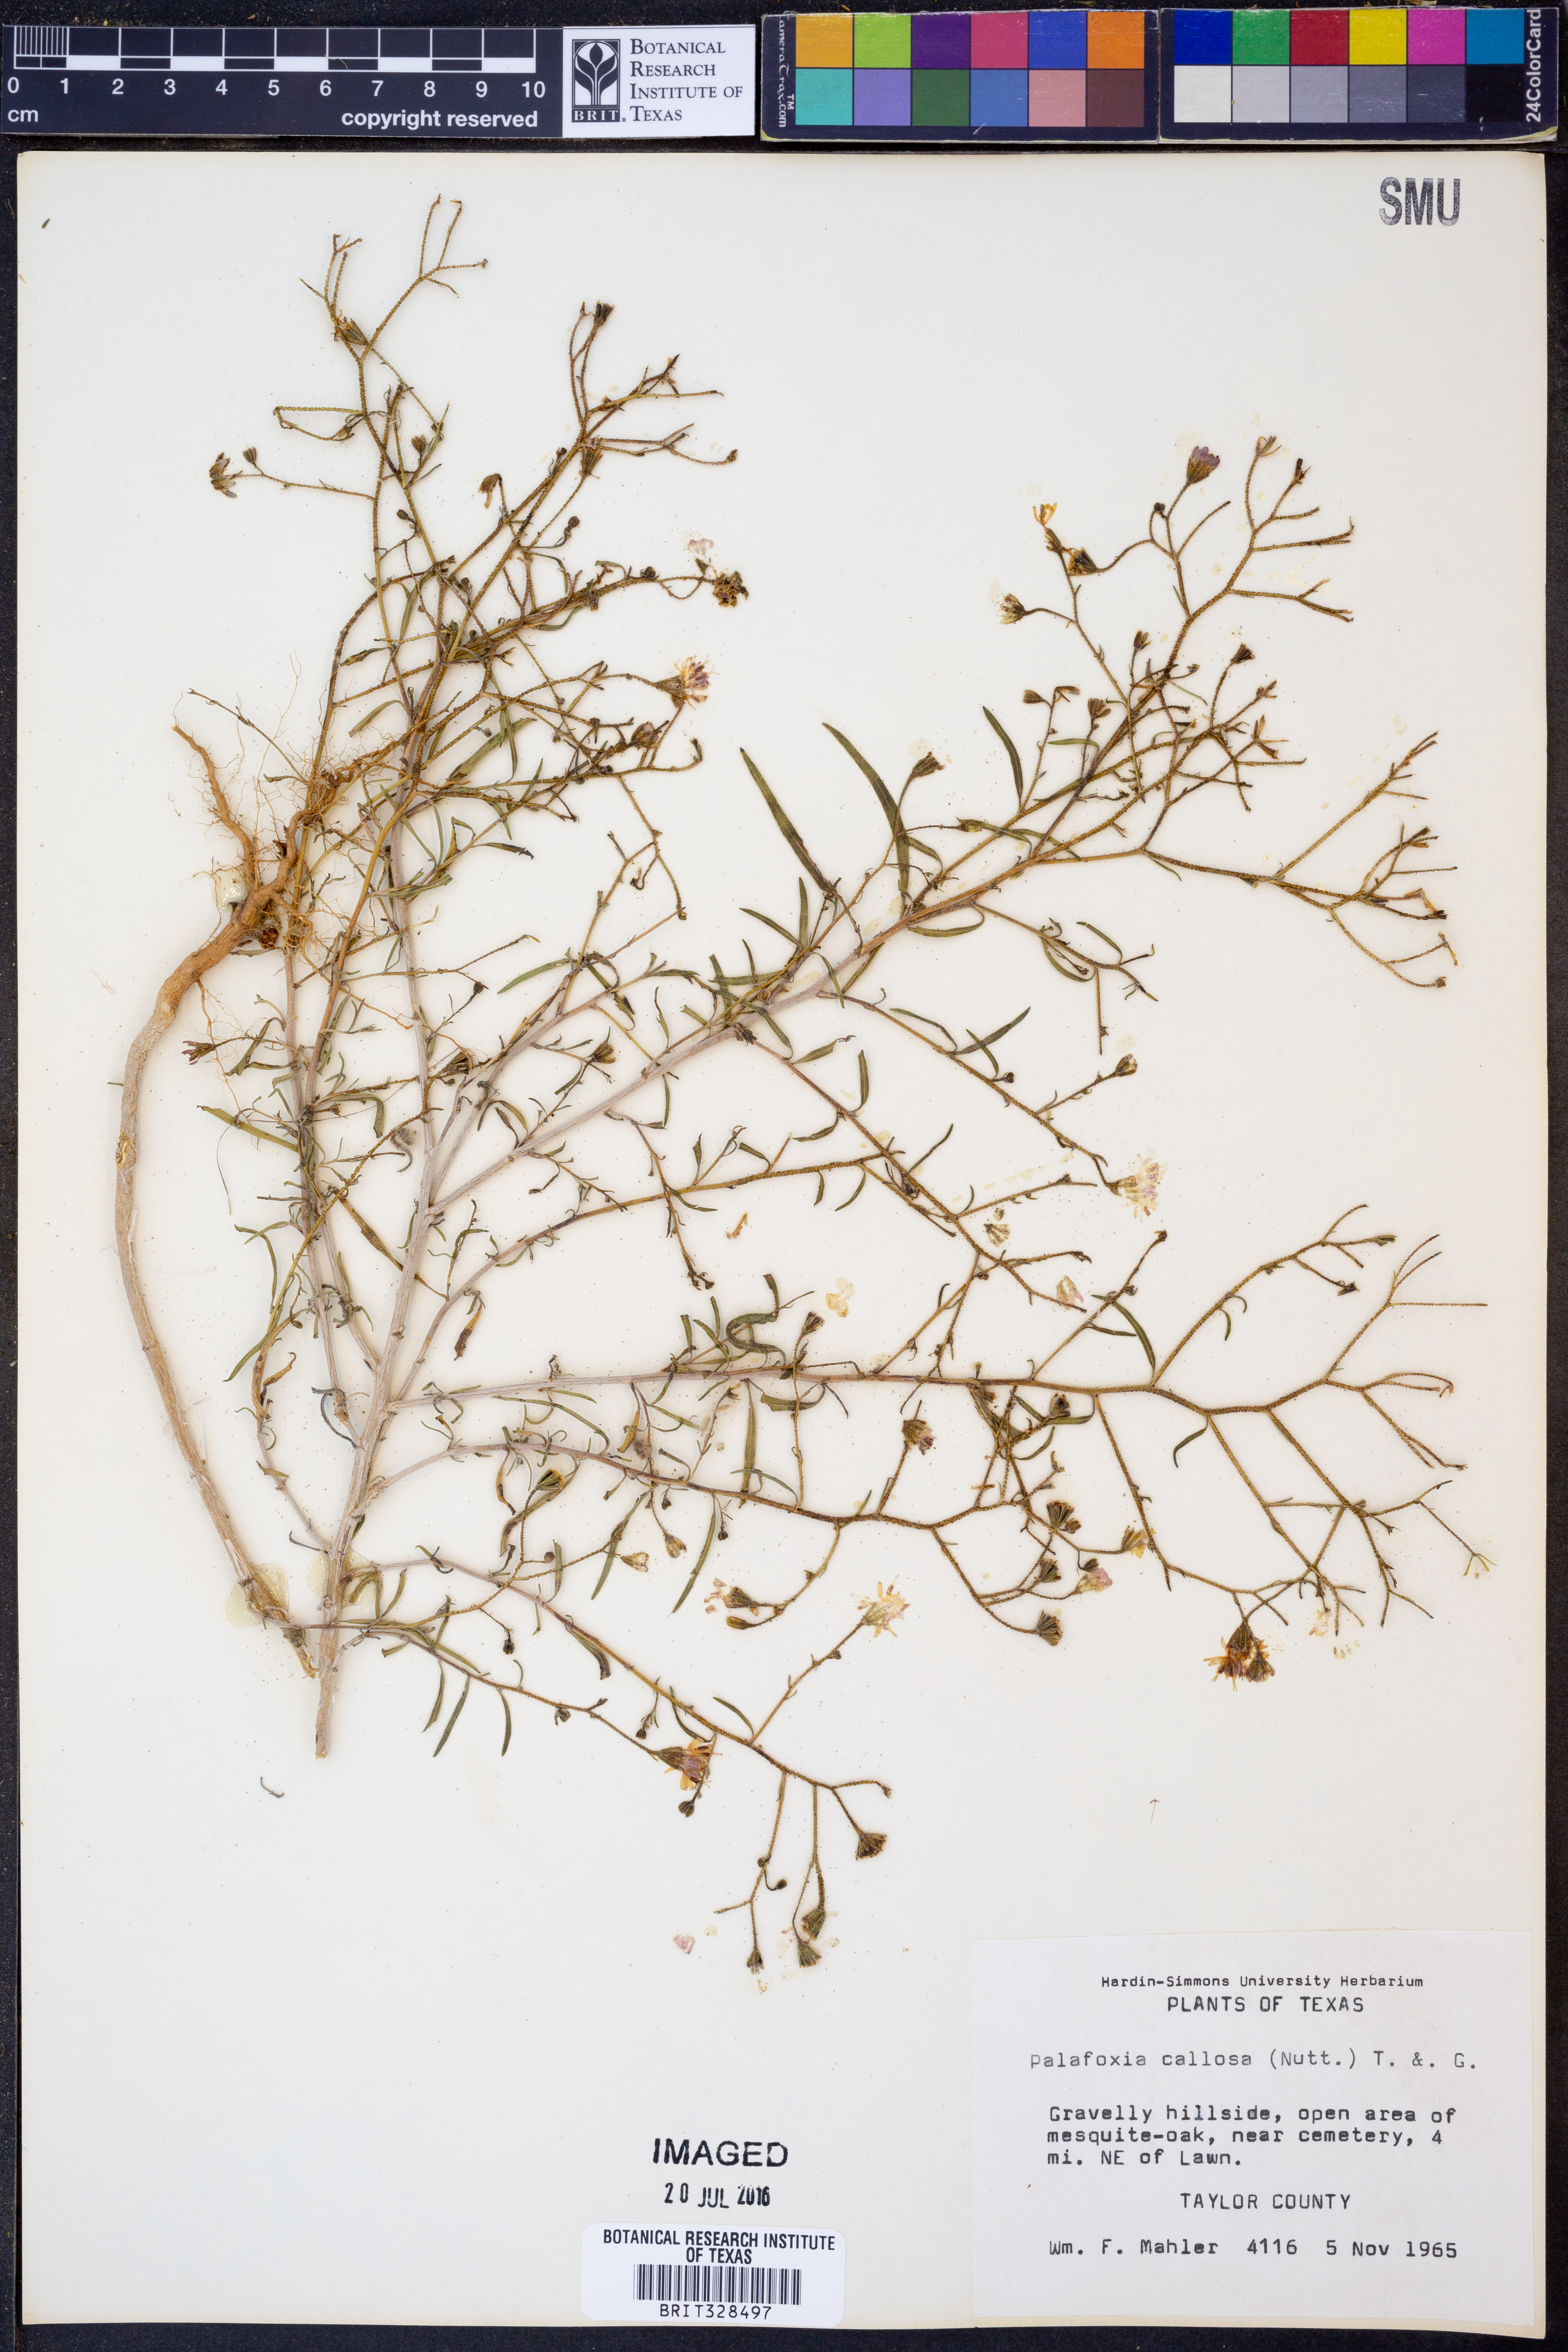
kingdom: Plantae
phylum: Tracheophyta
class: Magnoliopsida
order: Asterales
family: Asteraceae
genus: Palafoxia
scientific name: Palafoxia callosa
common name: Small palafox
